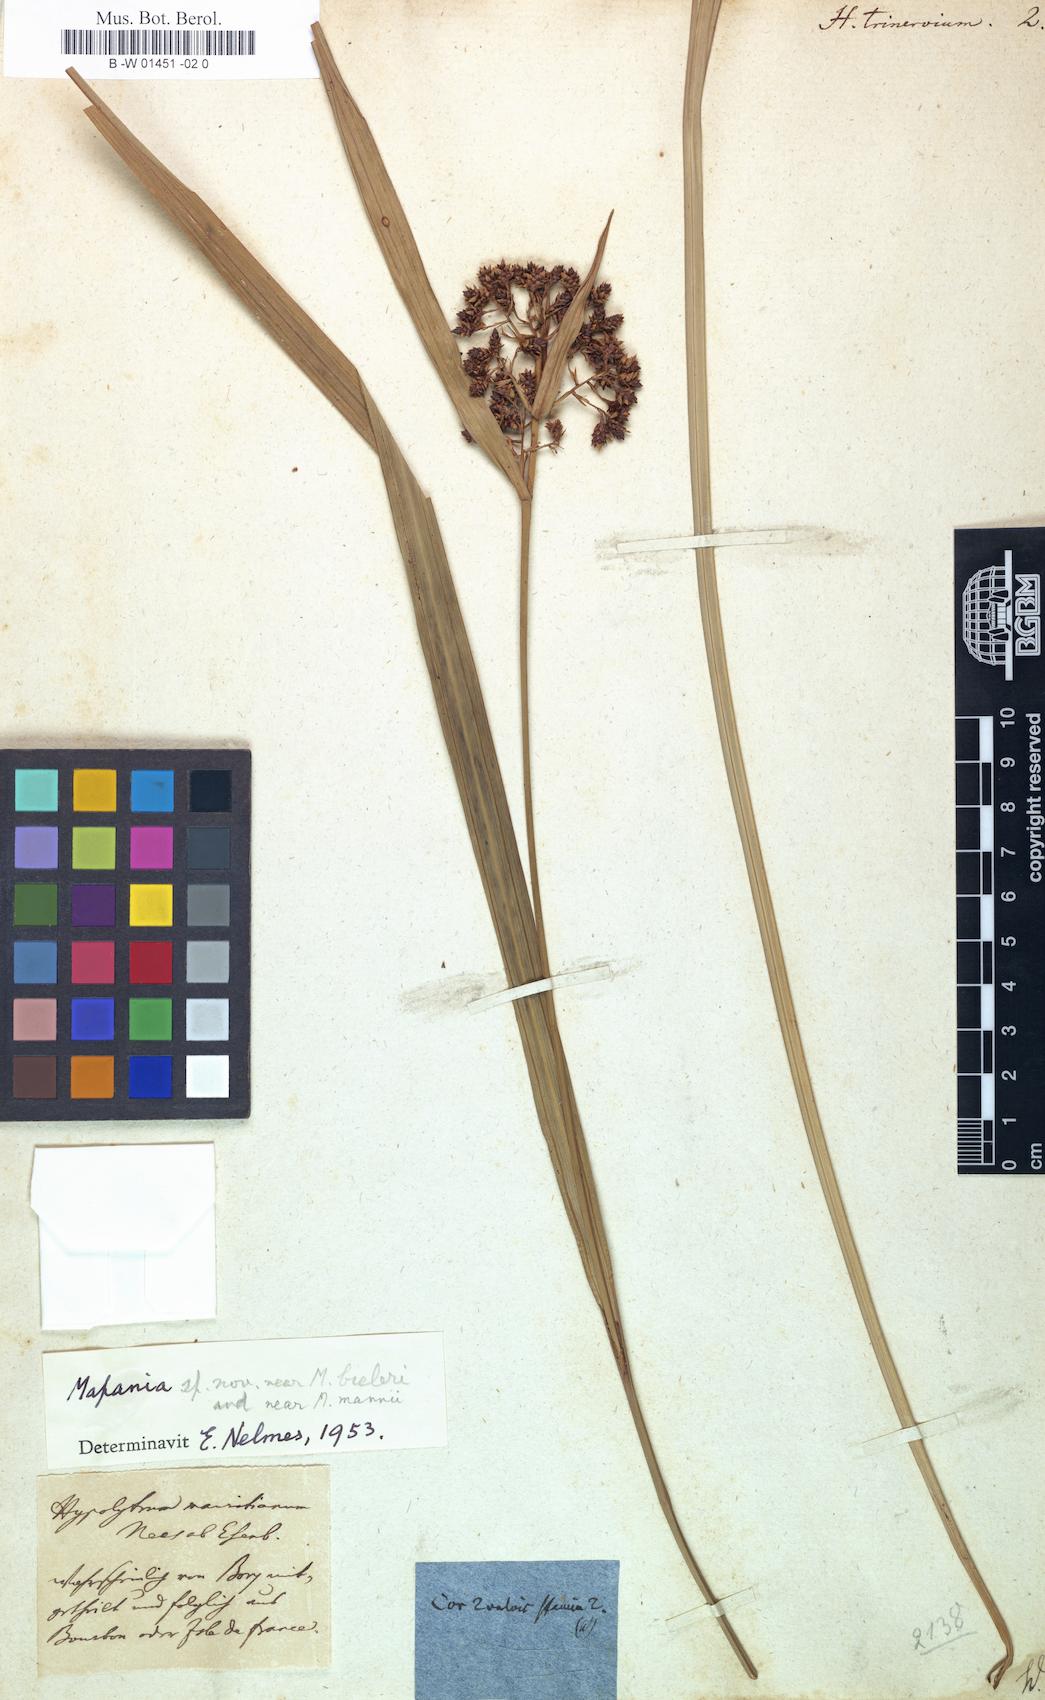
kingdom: Plantae
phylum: Tracheophyta
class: Liliopsida
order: Poales
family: Cyperaceae
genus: Cyperus
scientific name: Cyperus
